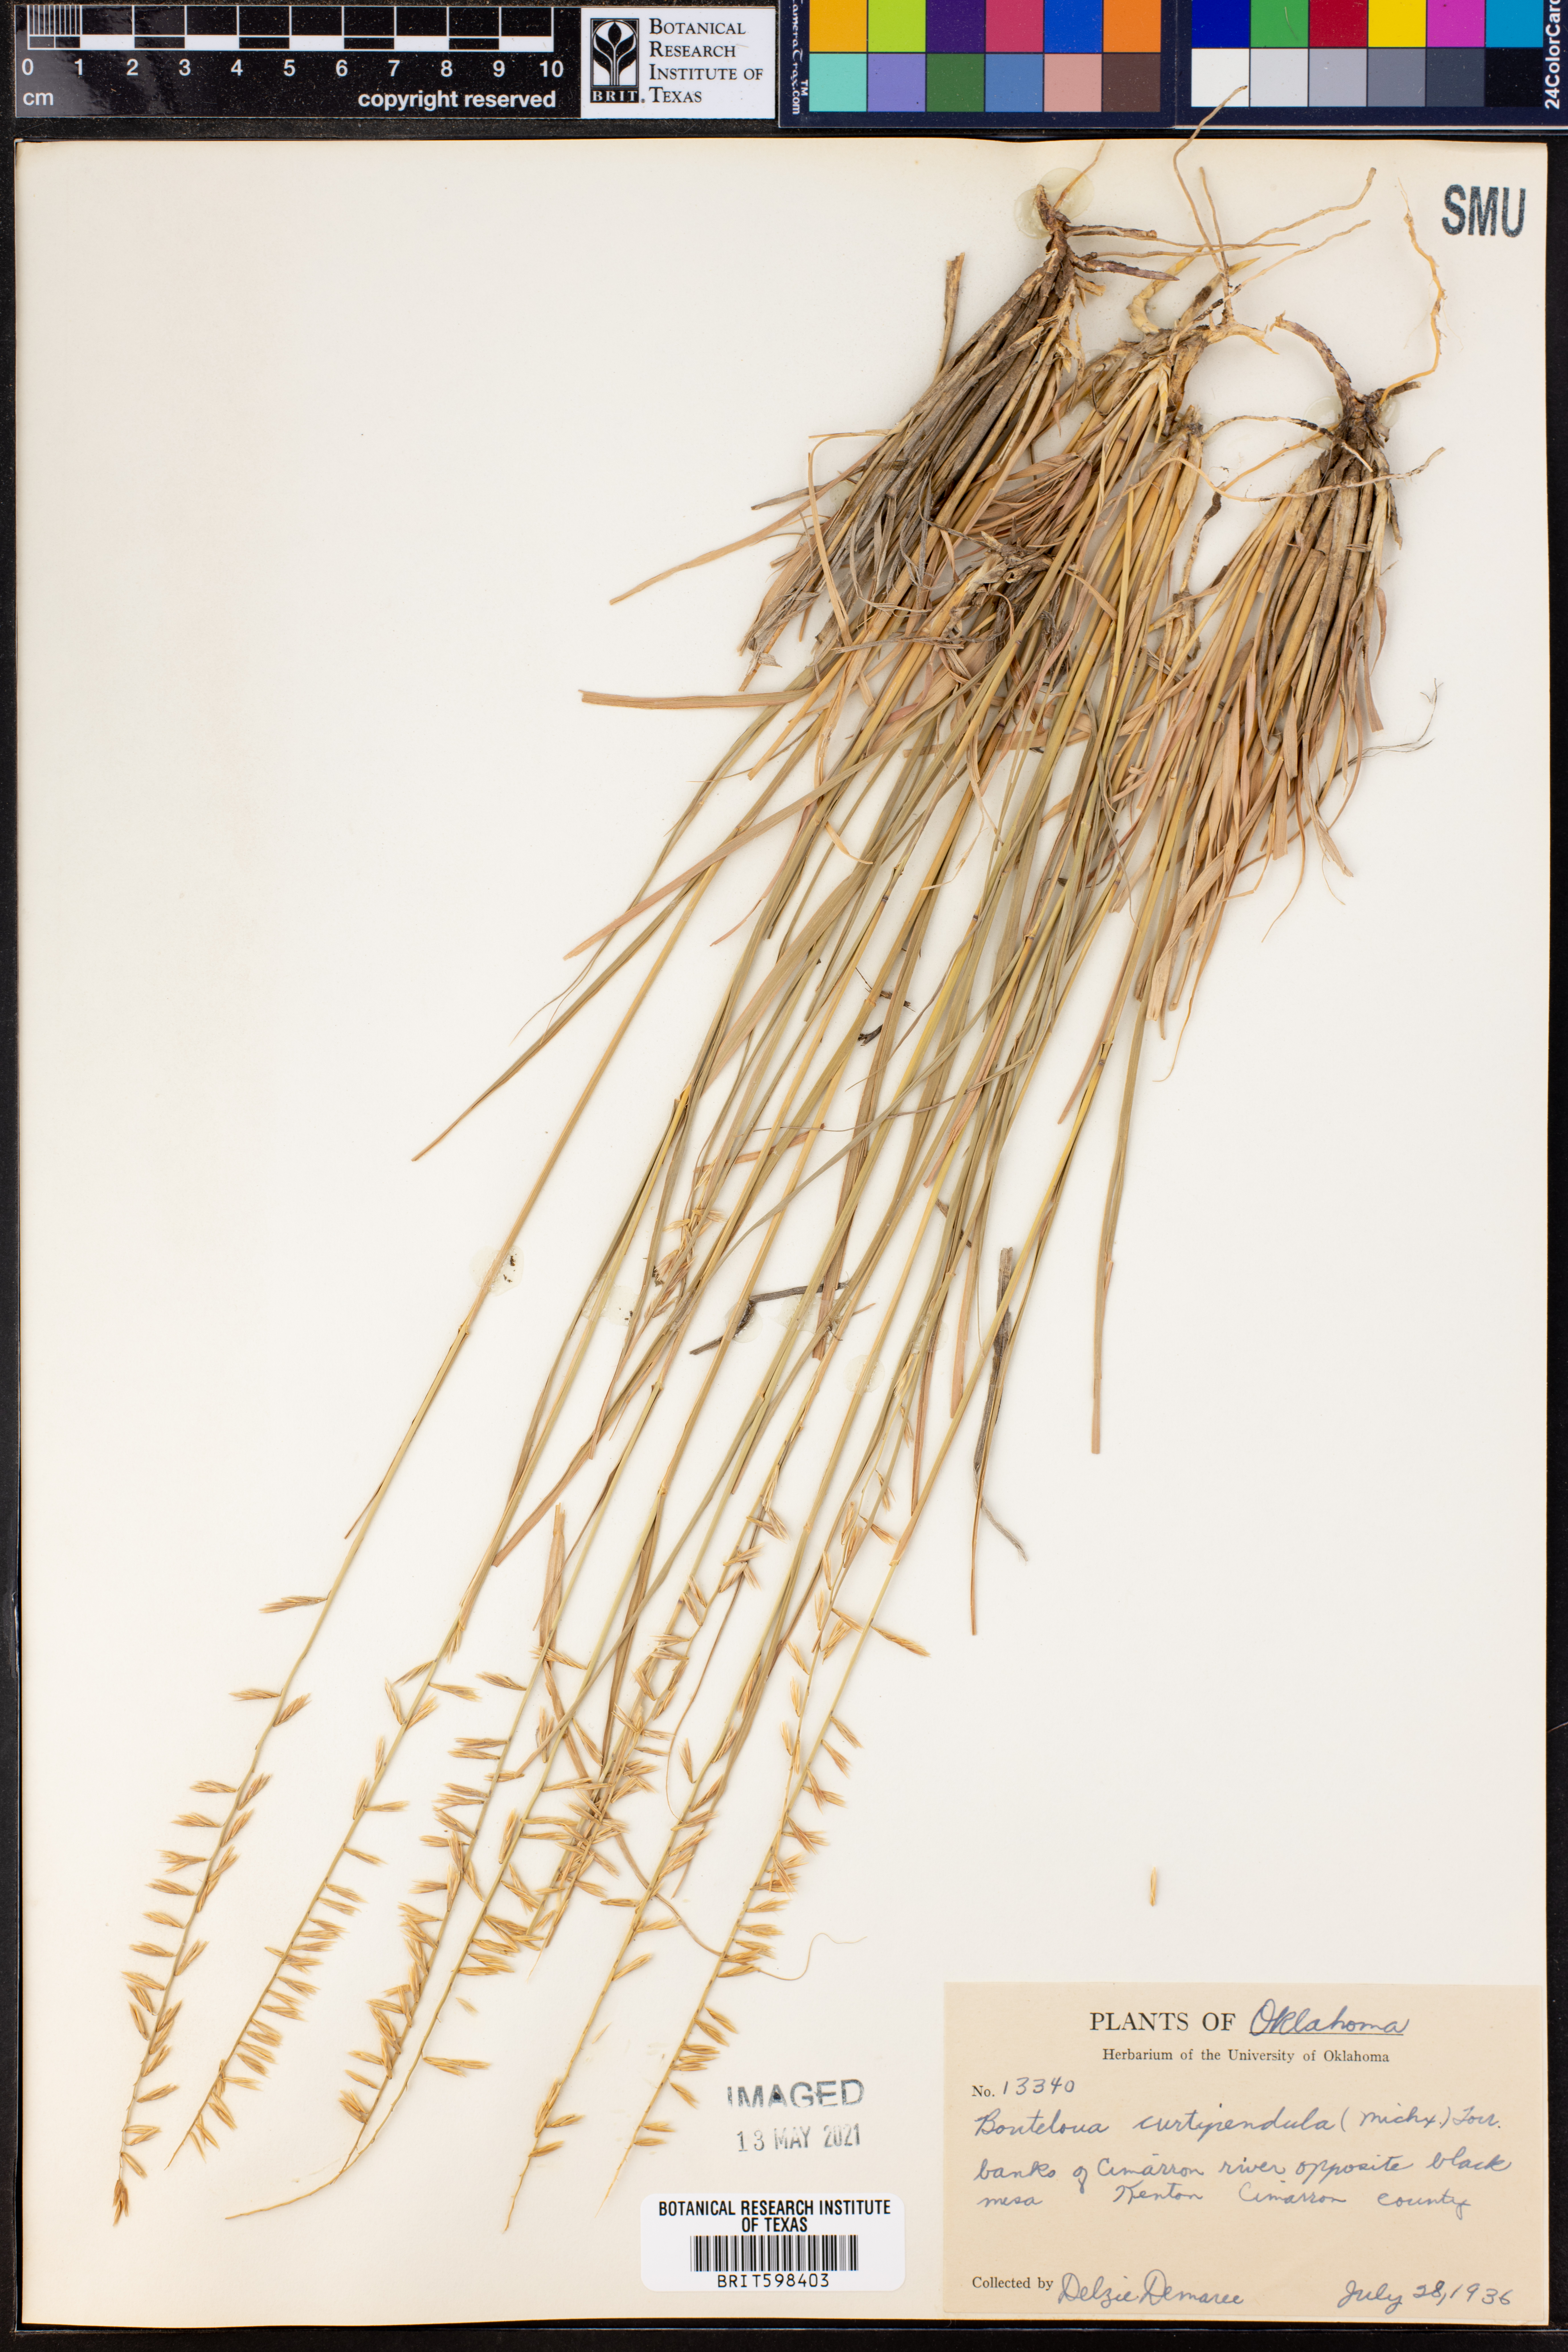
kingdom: Plantae
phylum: Tracheophyta
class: Liliopsida
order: Poales
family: Poaceae
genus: Bouteloua
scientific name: Bouteloua curtipendula
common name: Side-oats grama
